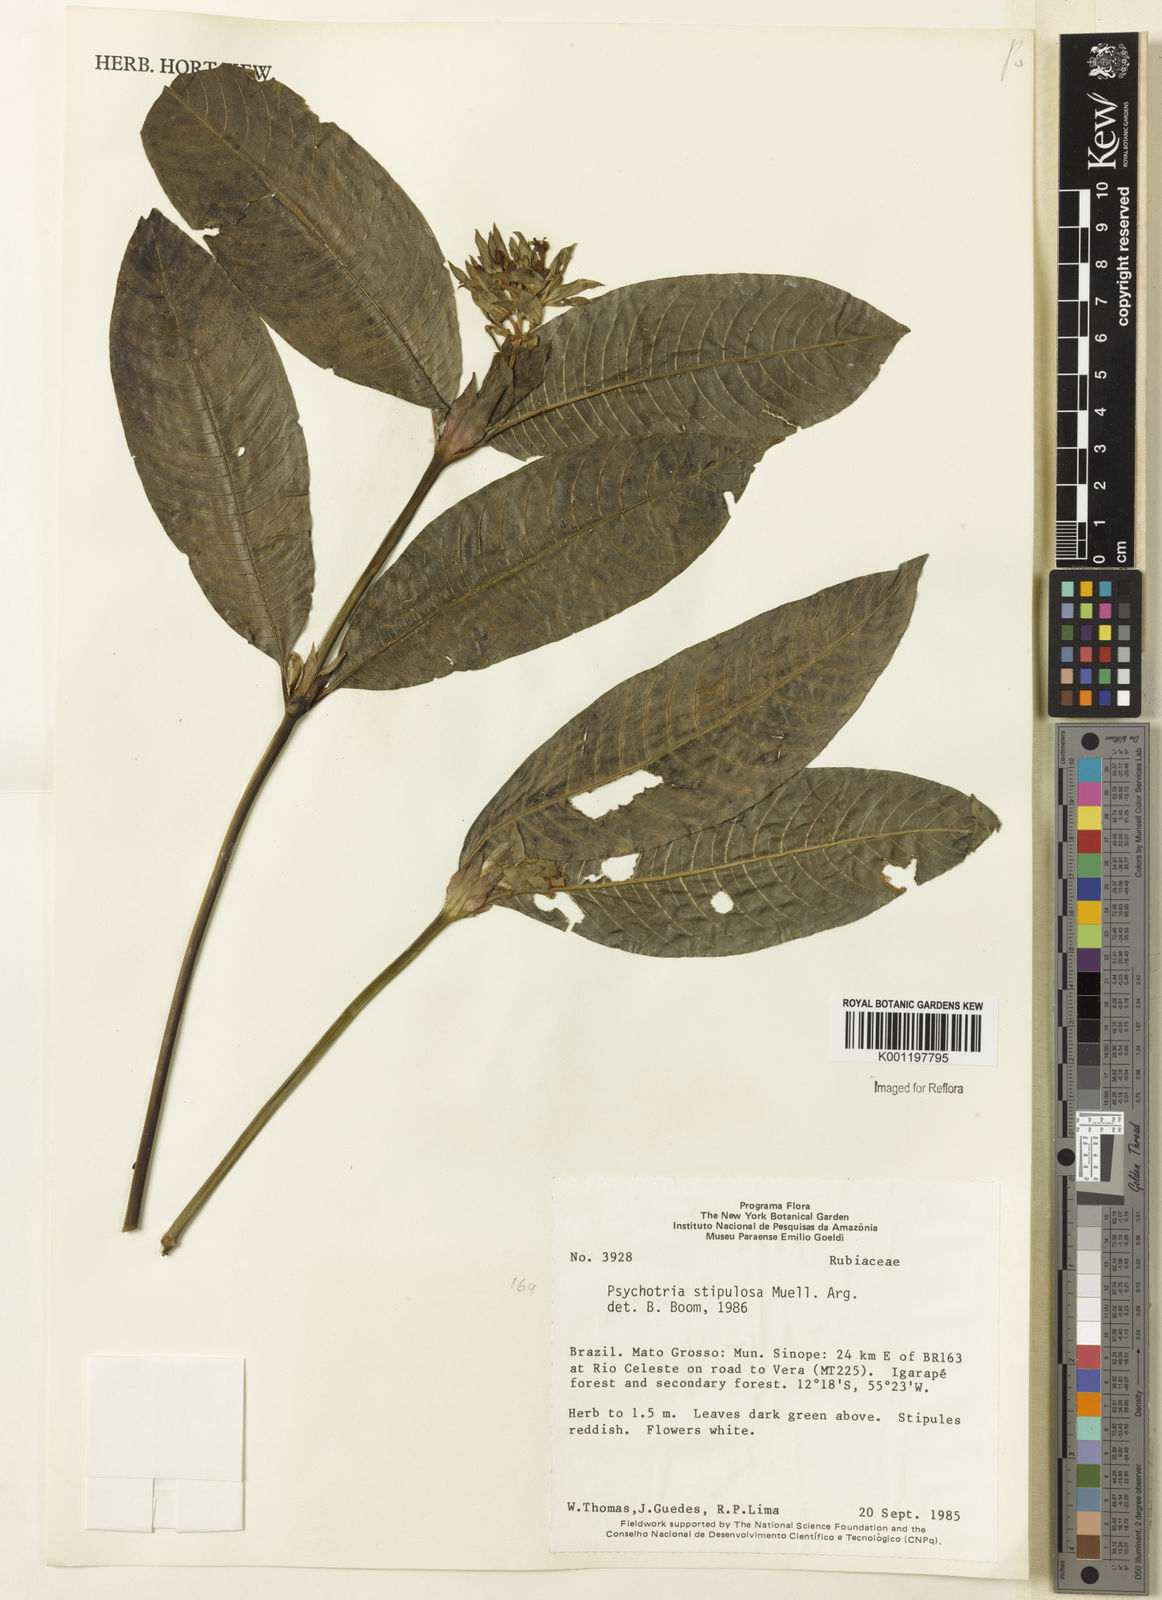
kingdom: Plantae
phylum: Tracheophyta
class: Magnoliopsida
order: Gentianales
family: Rubiaceae
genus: Psychotria
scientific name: Psychotria
